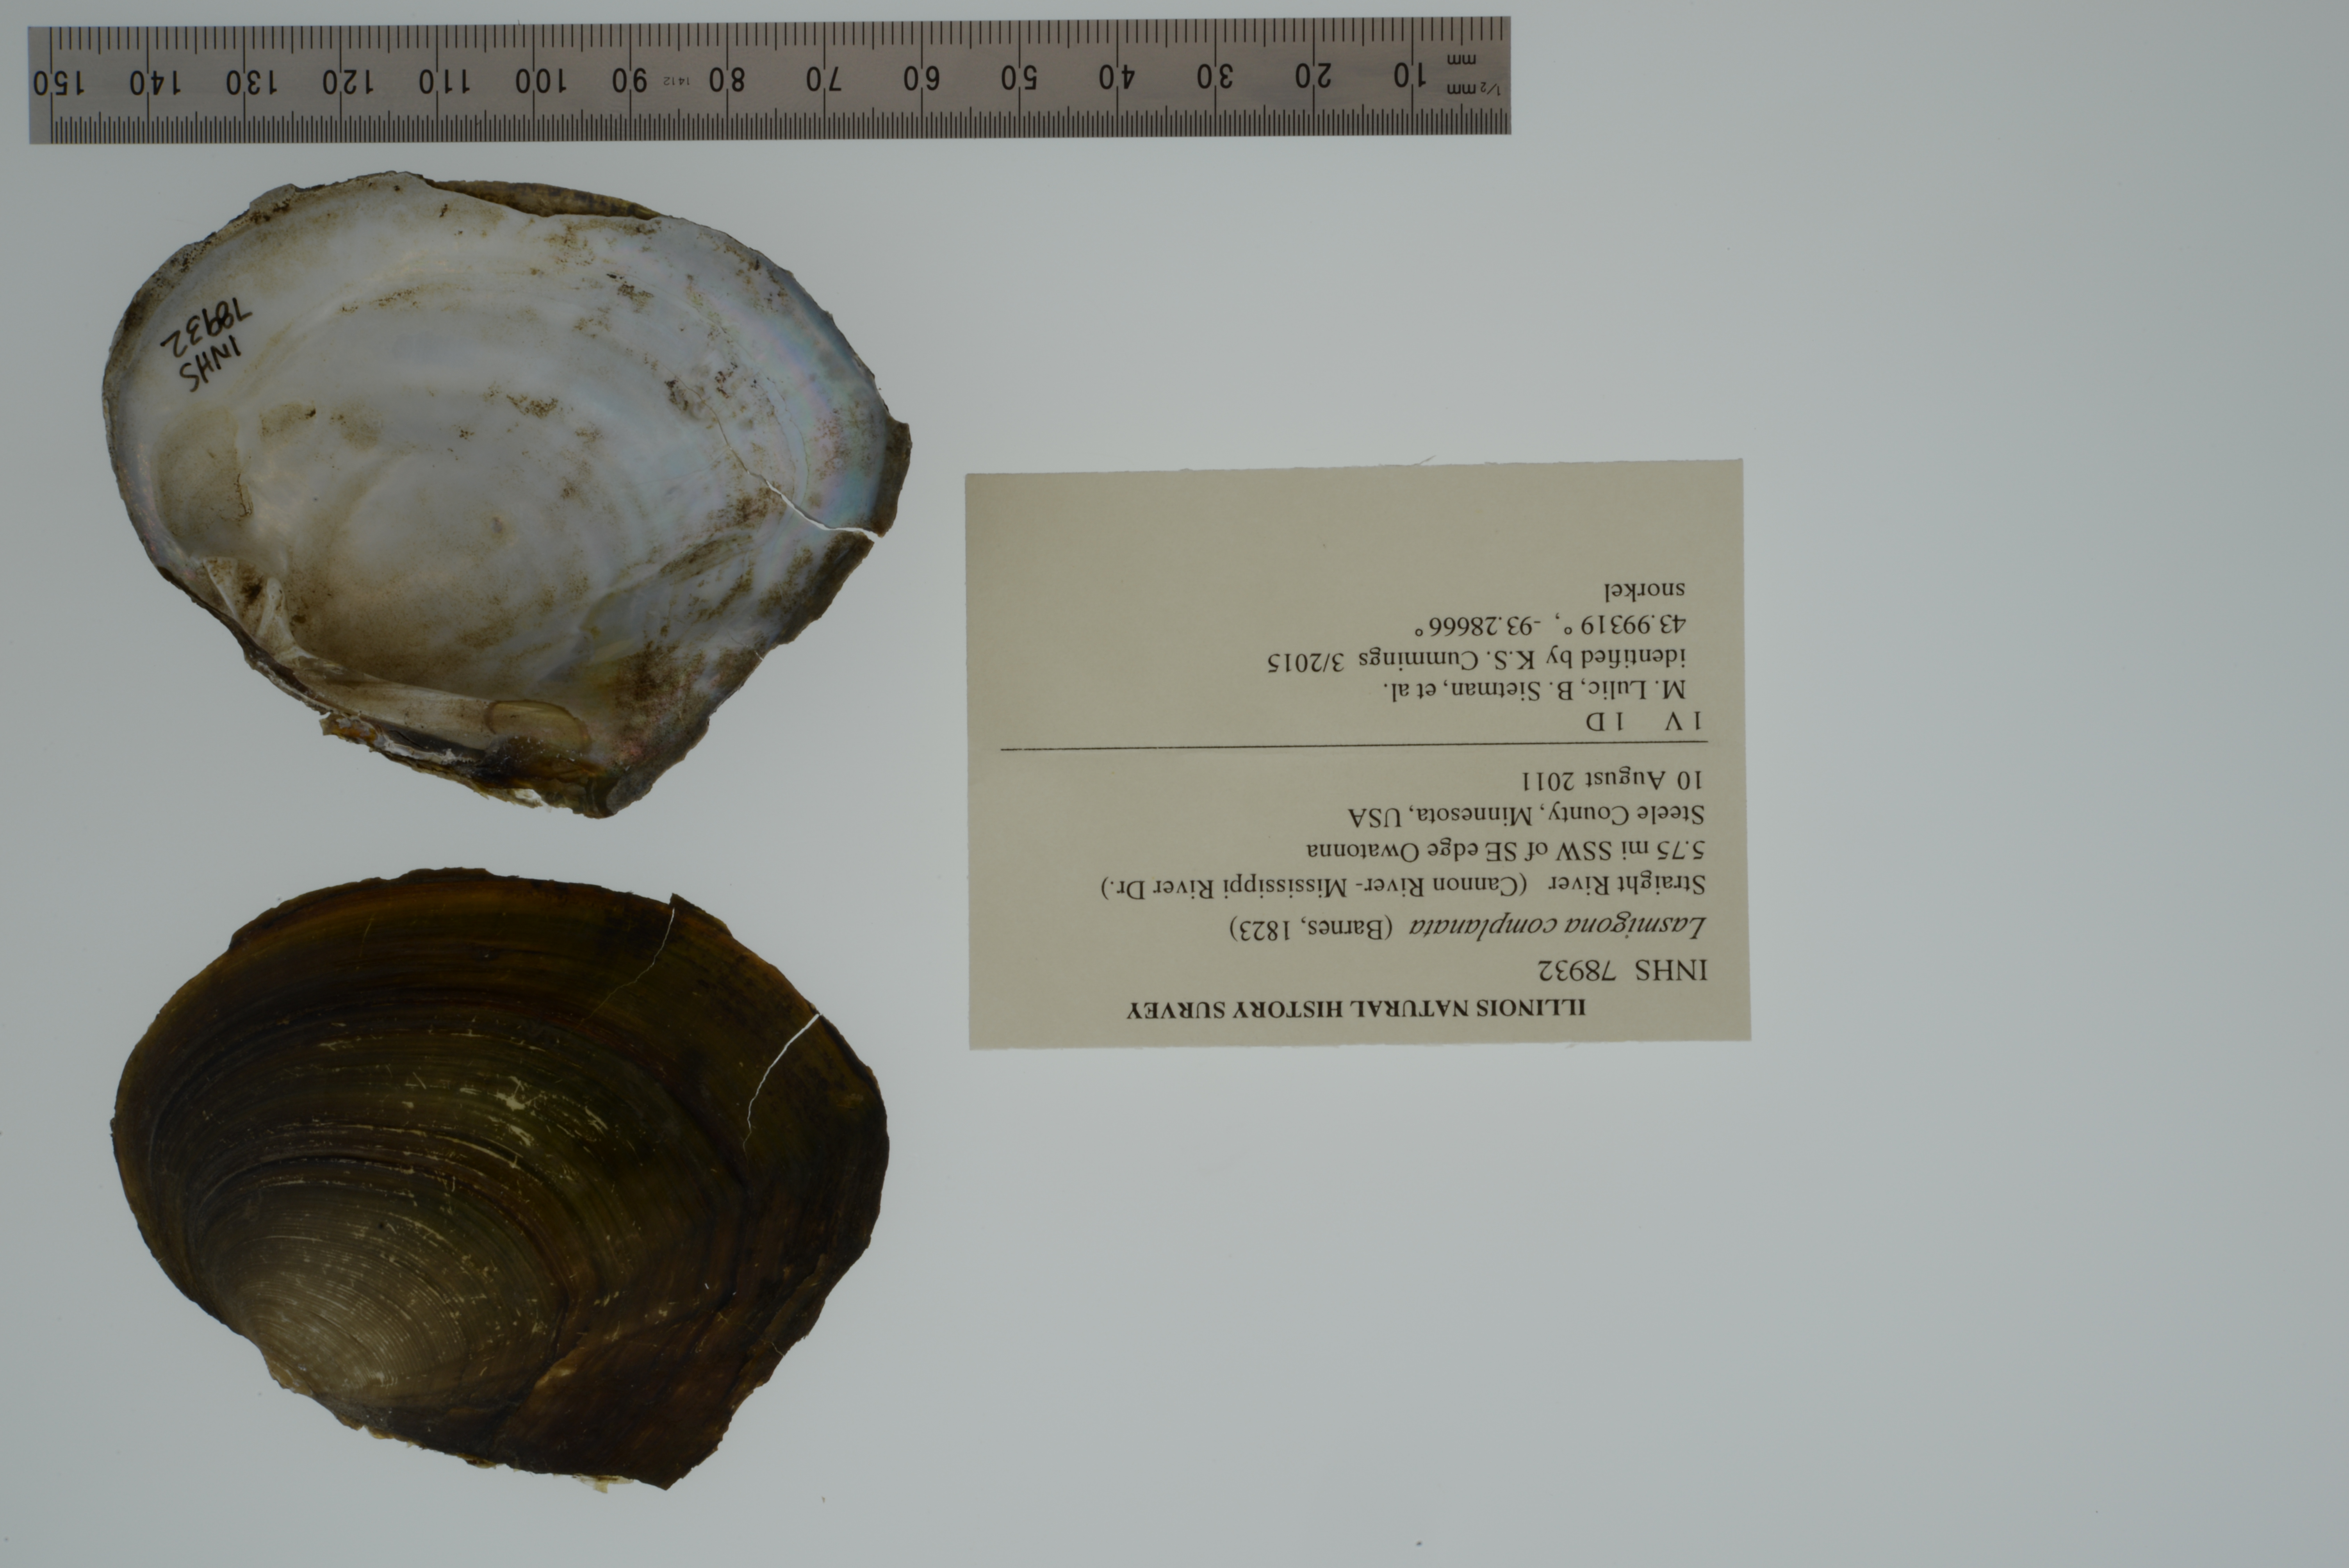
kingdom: Animalia
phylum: Mollusca
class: Bivalvia
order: Unionida
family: Unionidae
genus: Lasmigona
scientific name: Lasmigona complanata
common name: White heelsplitter
